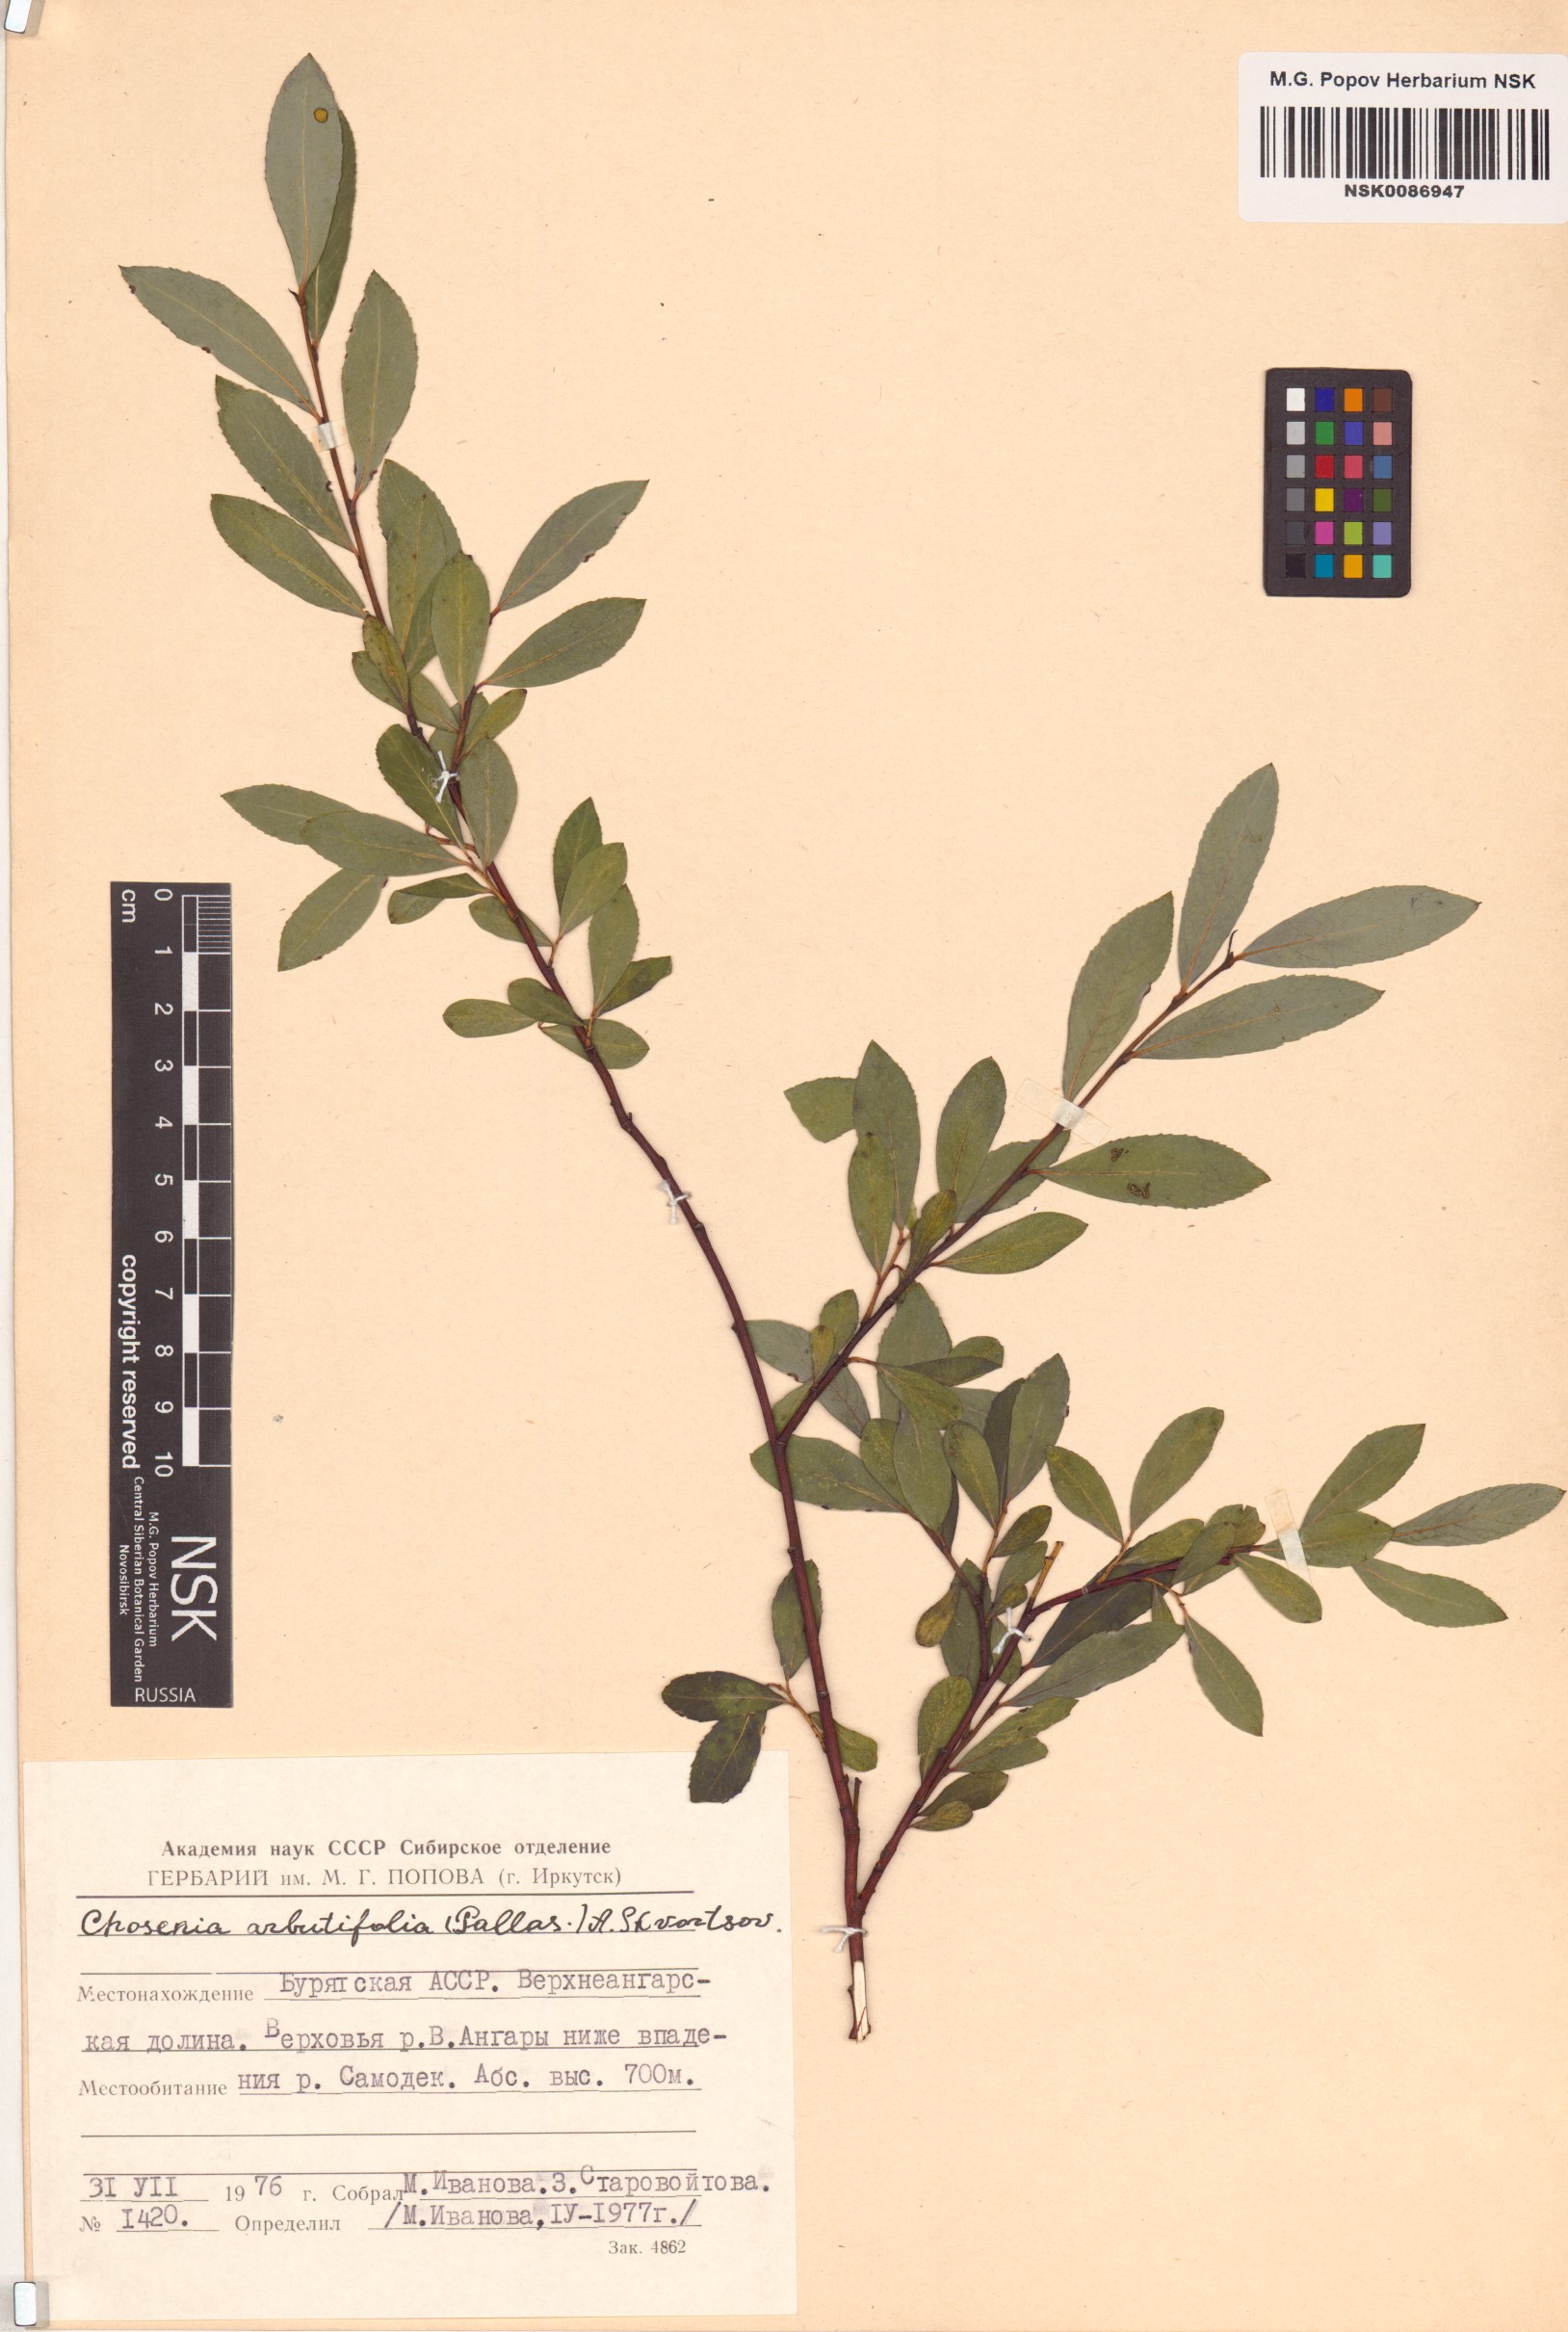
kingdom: Plantae
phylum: Tracheophyta
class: Magnoliopsida
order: Malpighiales
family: Salicaceae
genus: Chosenia
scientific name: Chosenia arbutifolia
